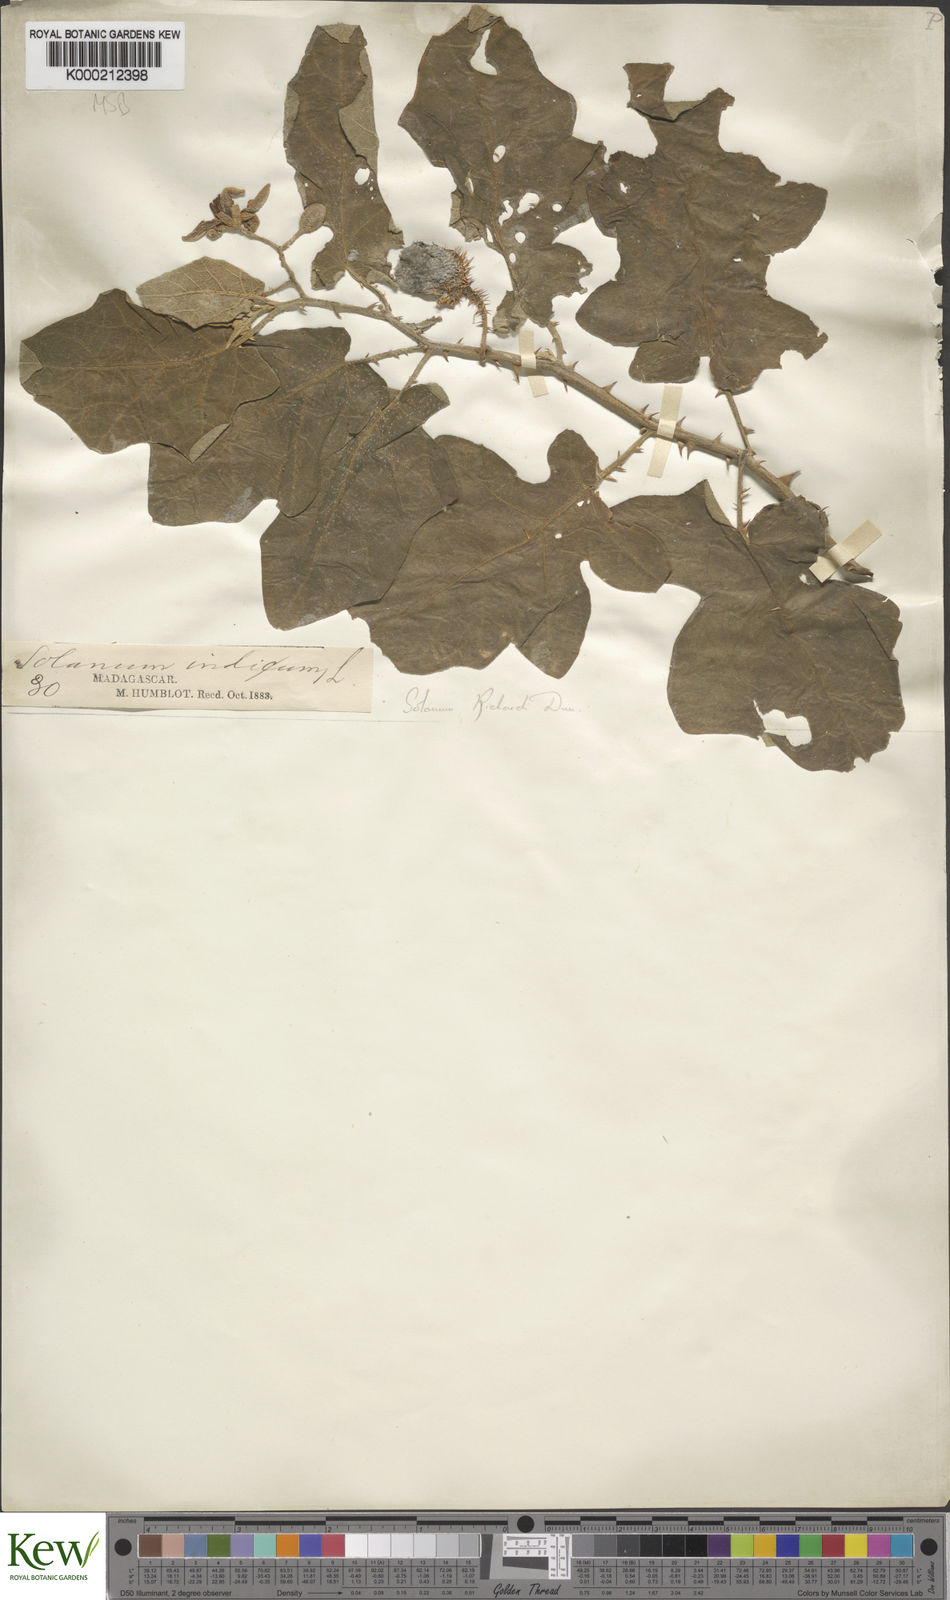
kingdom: Plantae
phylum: Tracheophyta
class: Magnoliopsida
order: Solanales
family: Solanaceae
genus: Solanum
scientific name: Solanum richardii
